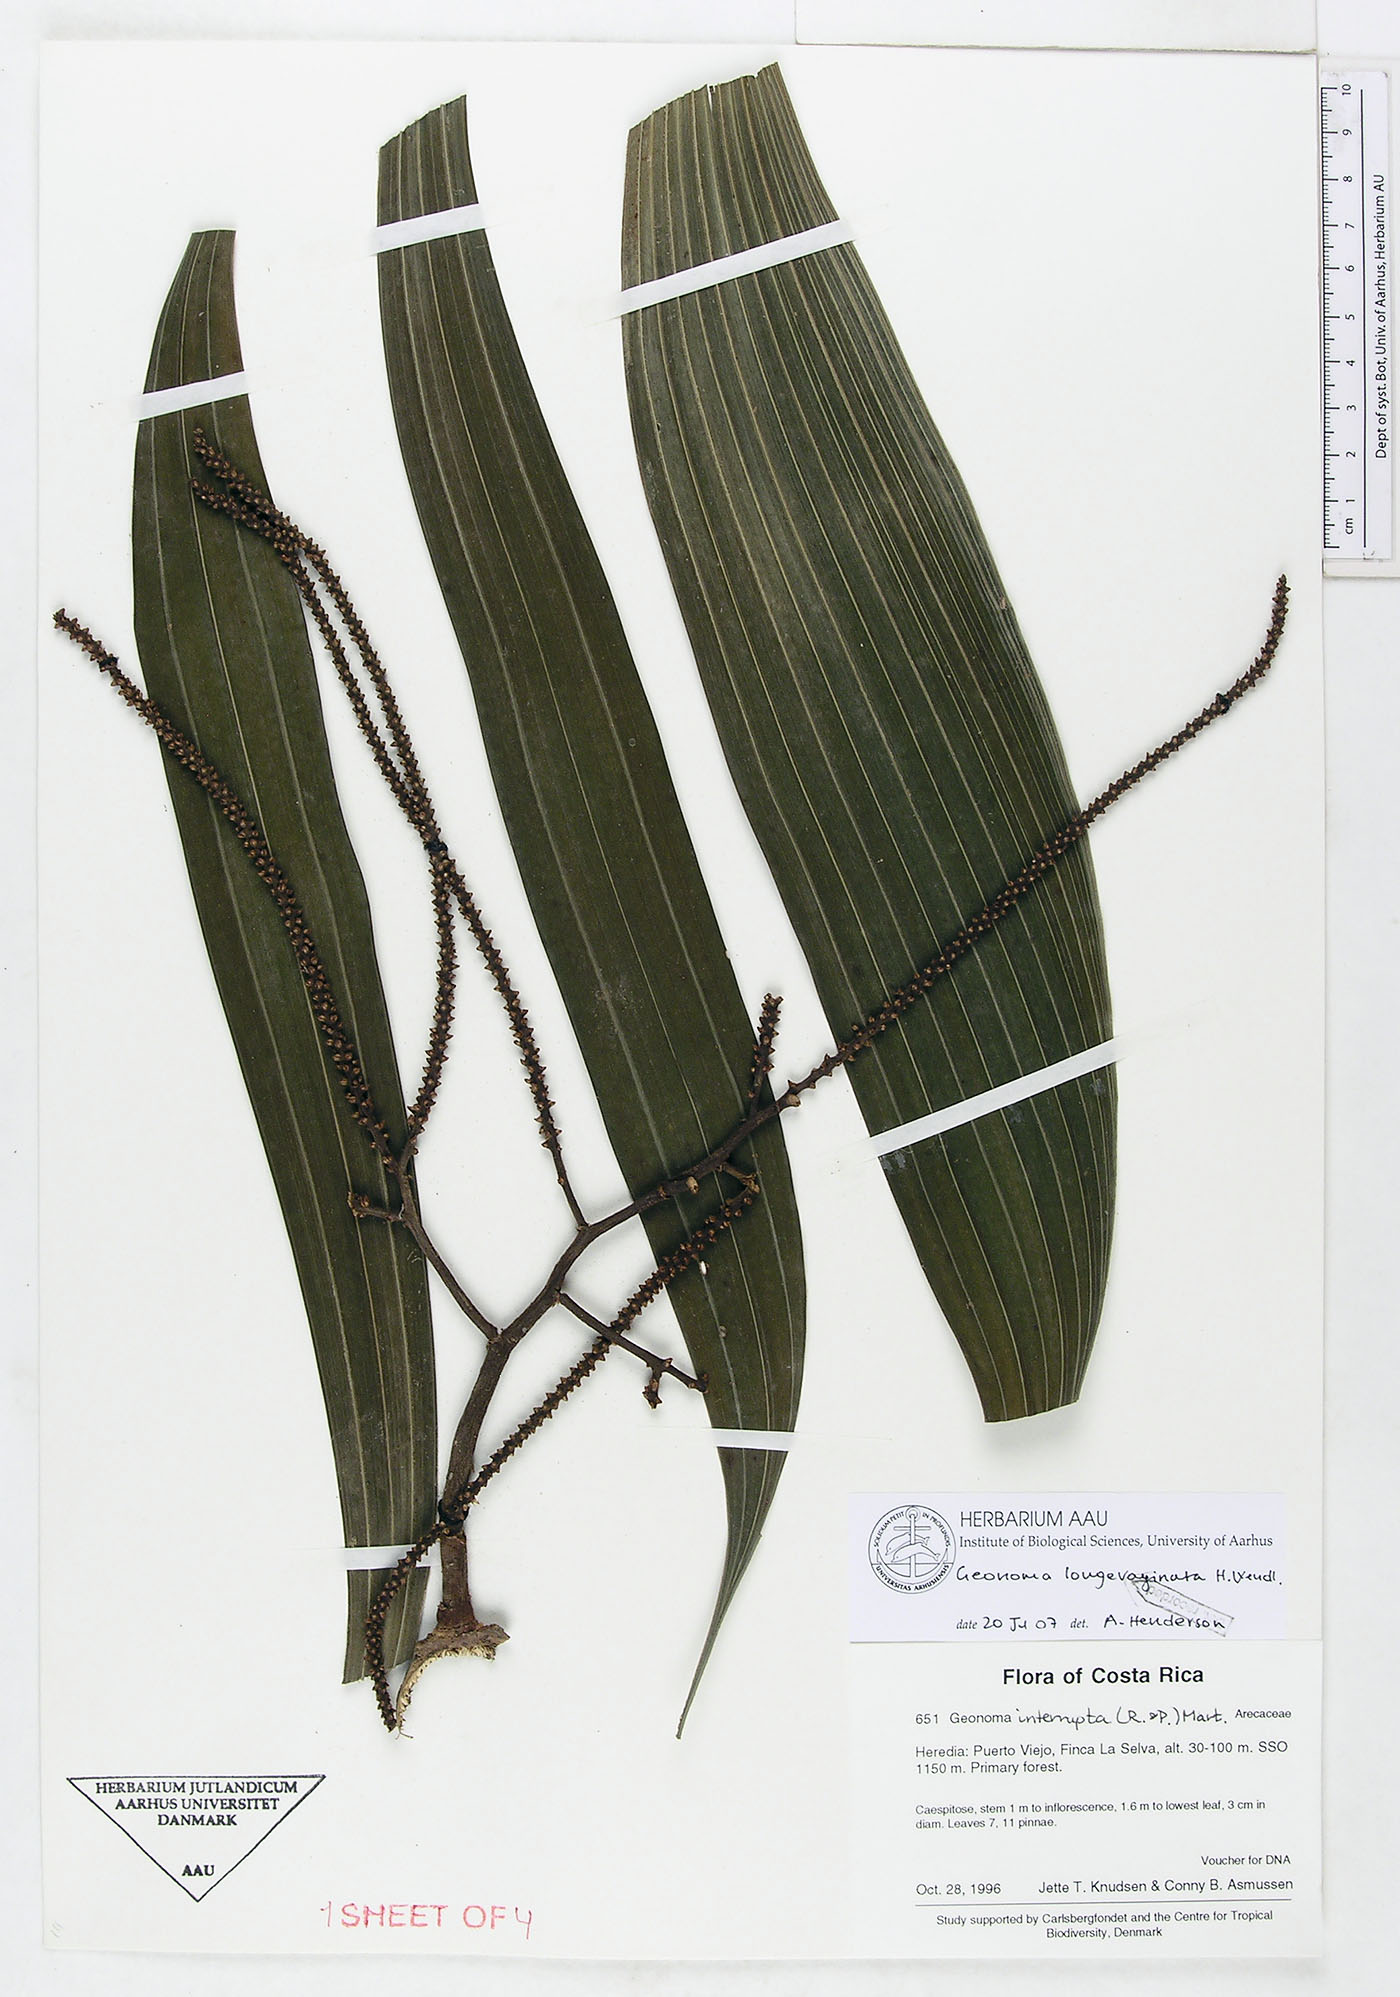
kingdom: Plantae
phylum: Tracheophyta
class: Liliopsida
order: Arecales
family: Arecaceae
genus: Geonoma
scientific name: Geonoma longivaginata
